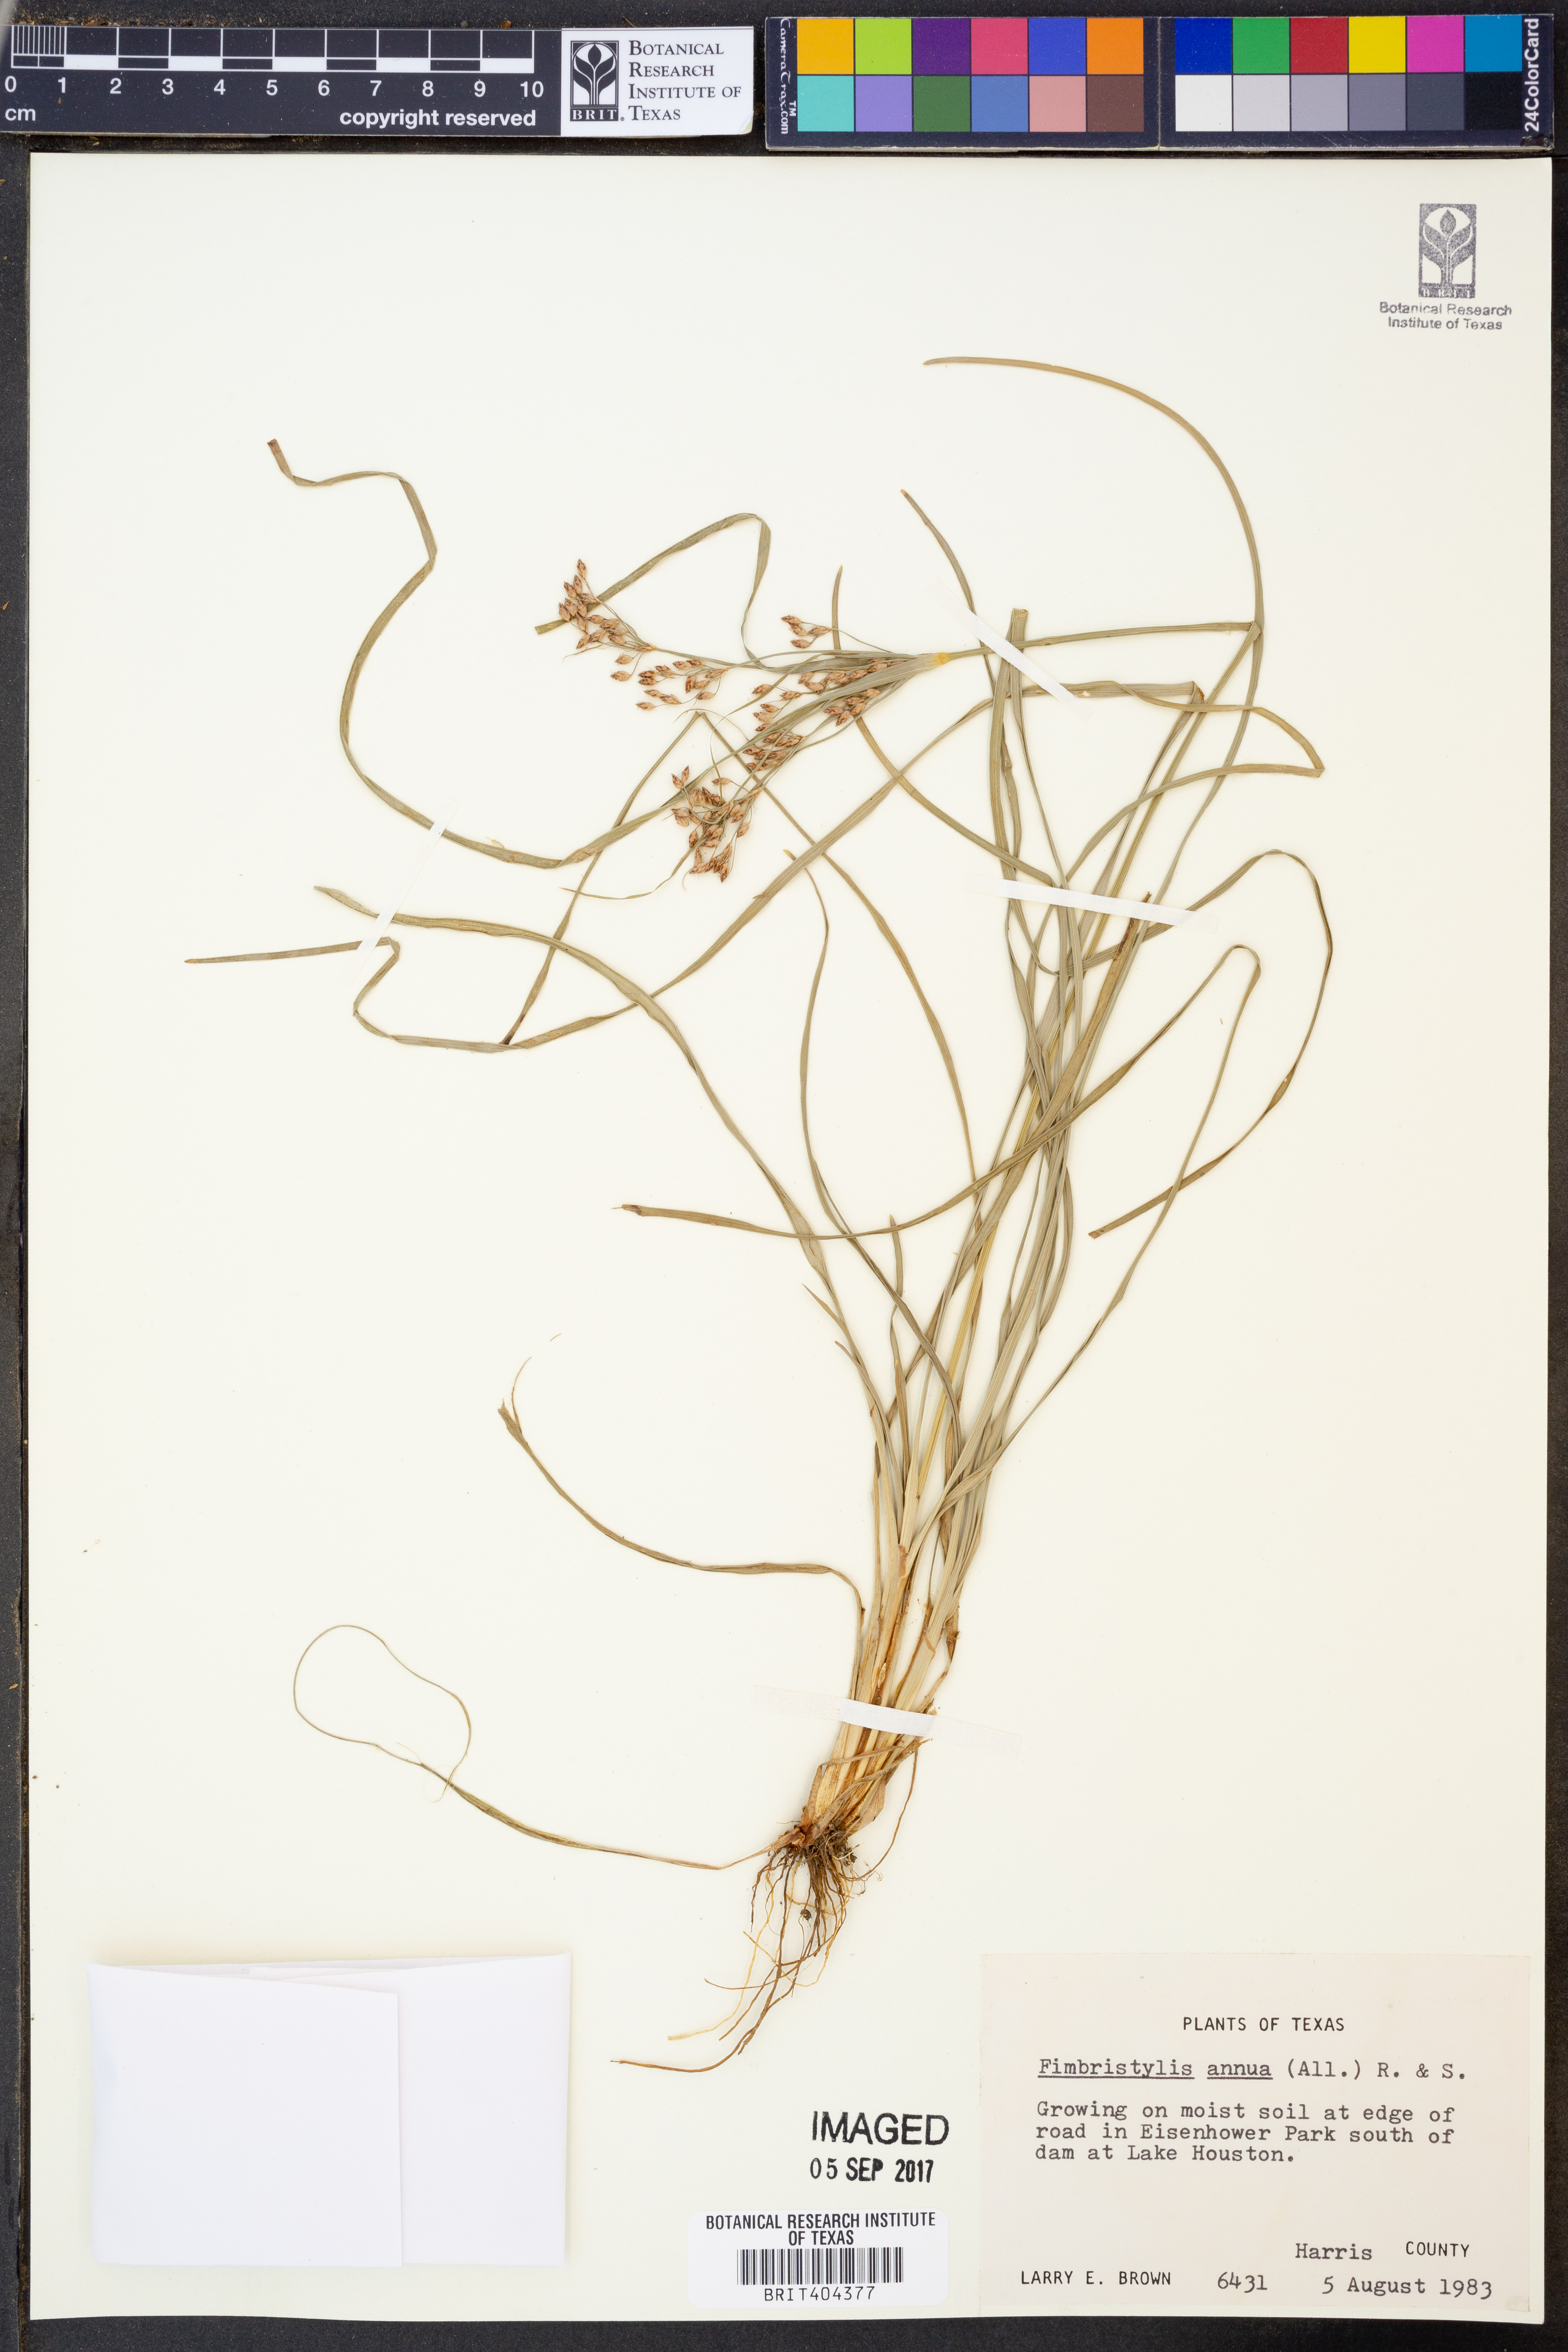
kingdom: Plantae
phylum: Tracheophyta
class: Liliopsida
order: Poales
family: Cyperaceae
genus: Fimbristylis
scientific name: Fimbristylis dichotoma
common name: Forked fimbry
